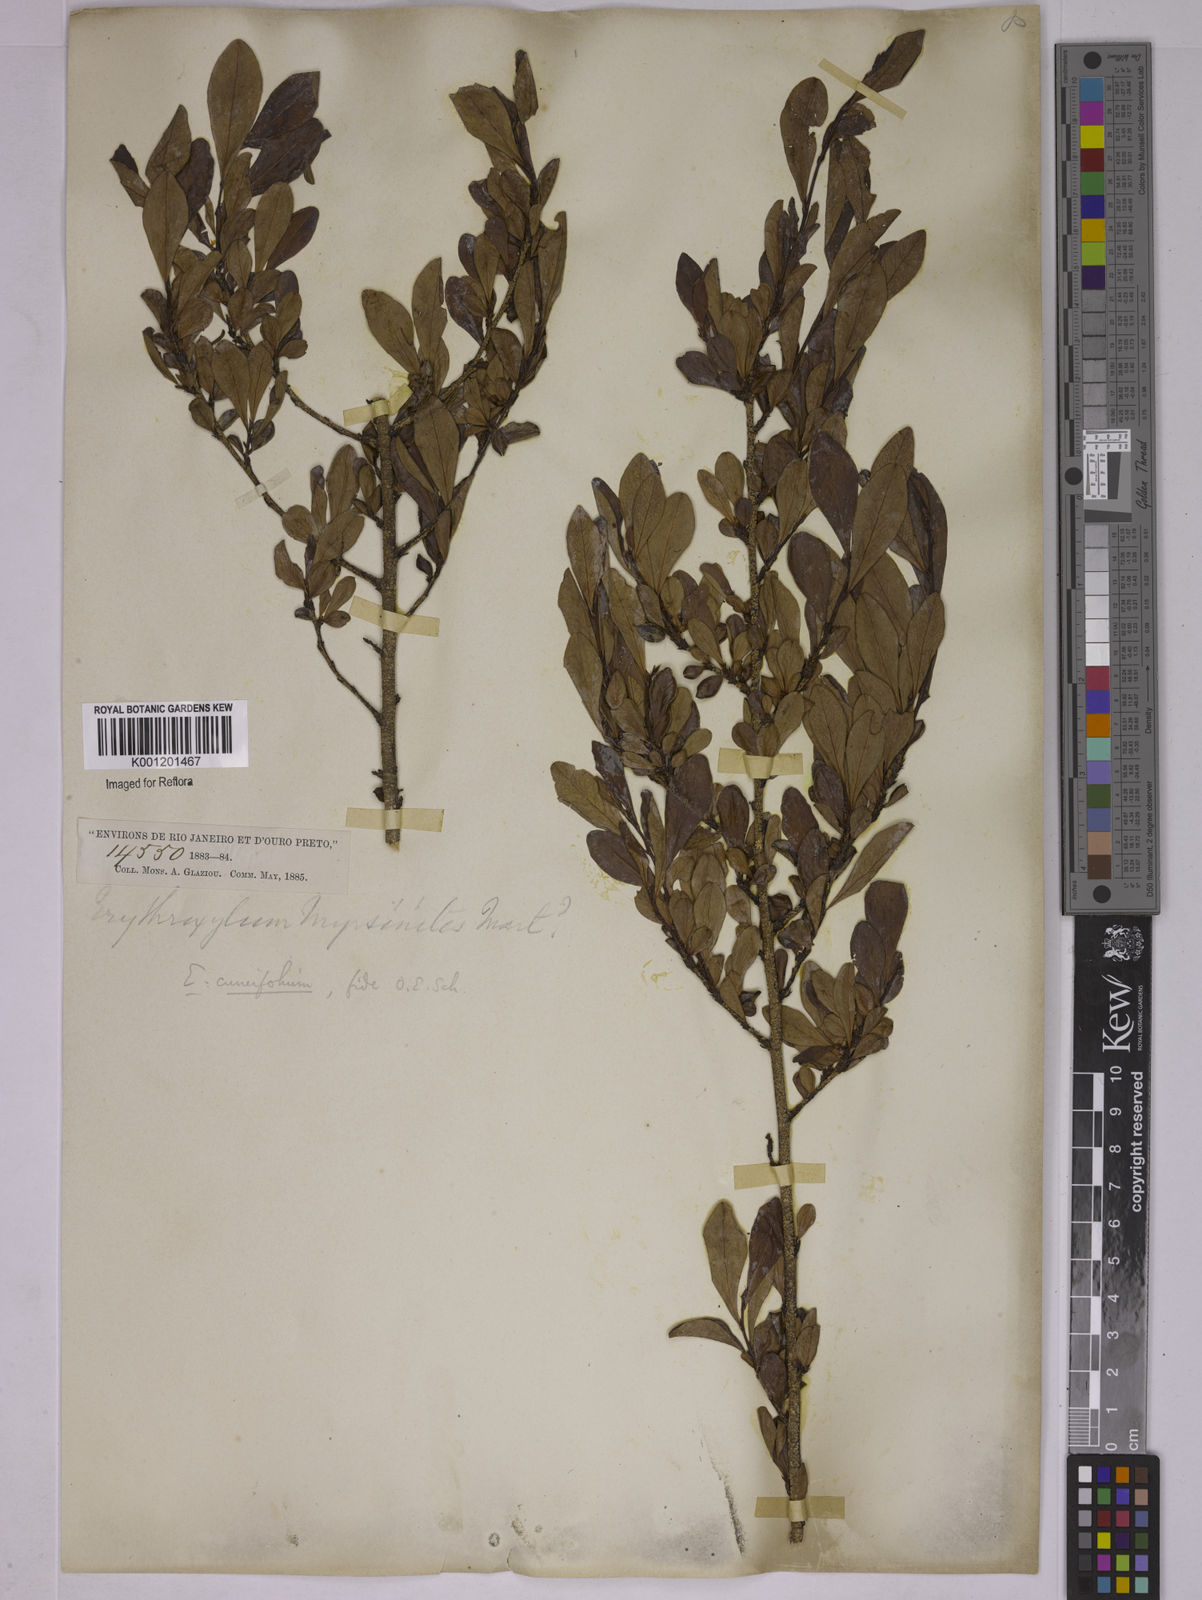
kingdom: Plantae
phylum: Tracheophyta
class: Magnoliopsida
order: Malpighiales
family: Erythroxylaceae
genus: Erythroxylum
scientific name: Erythroxylum cuneifolium
